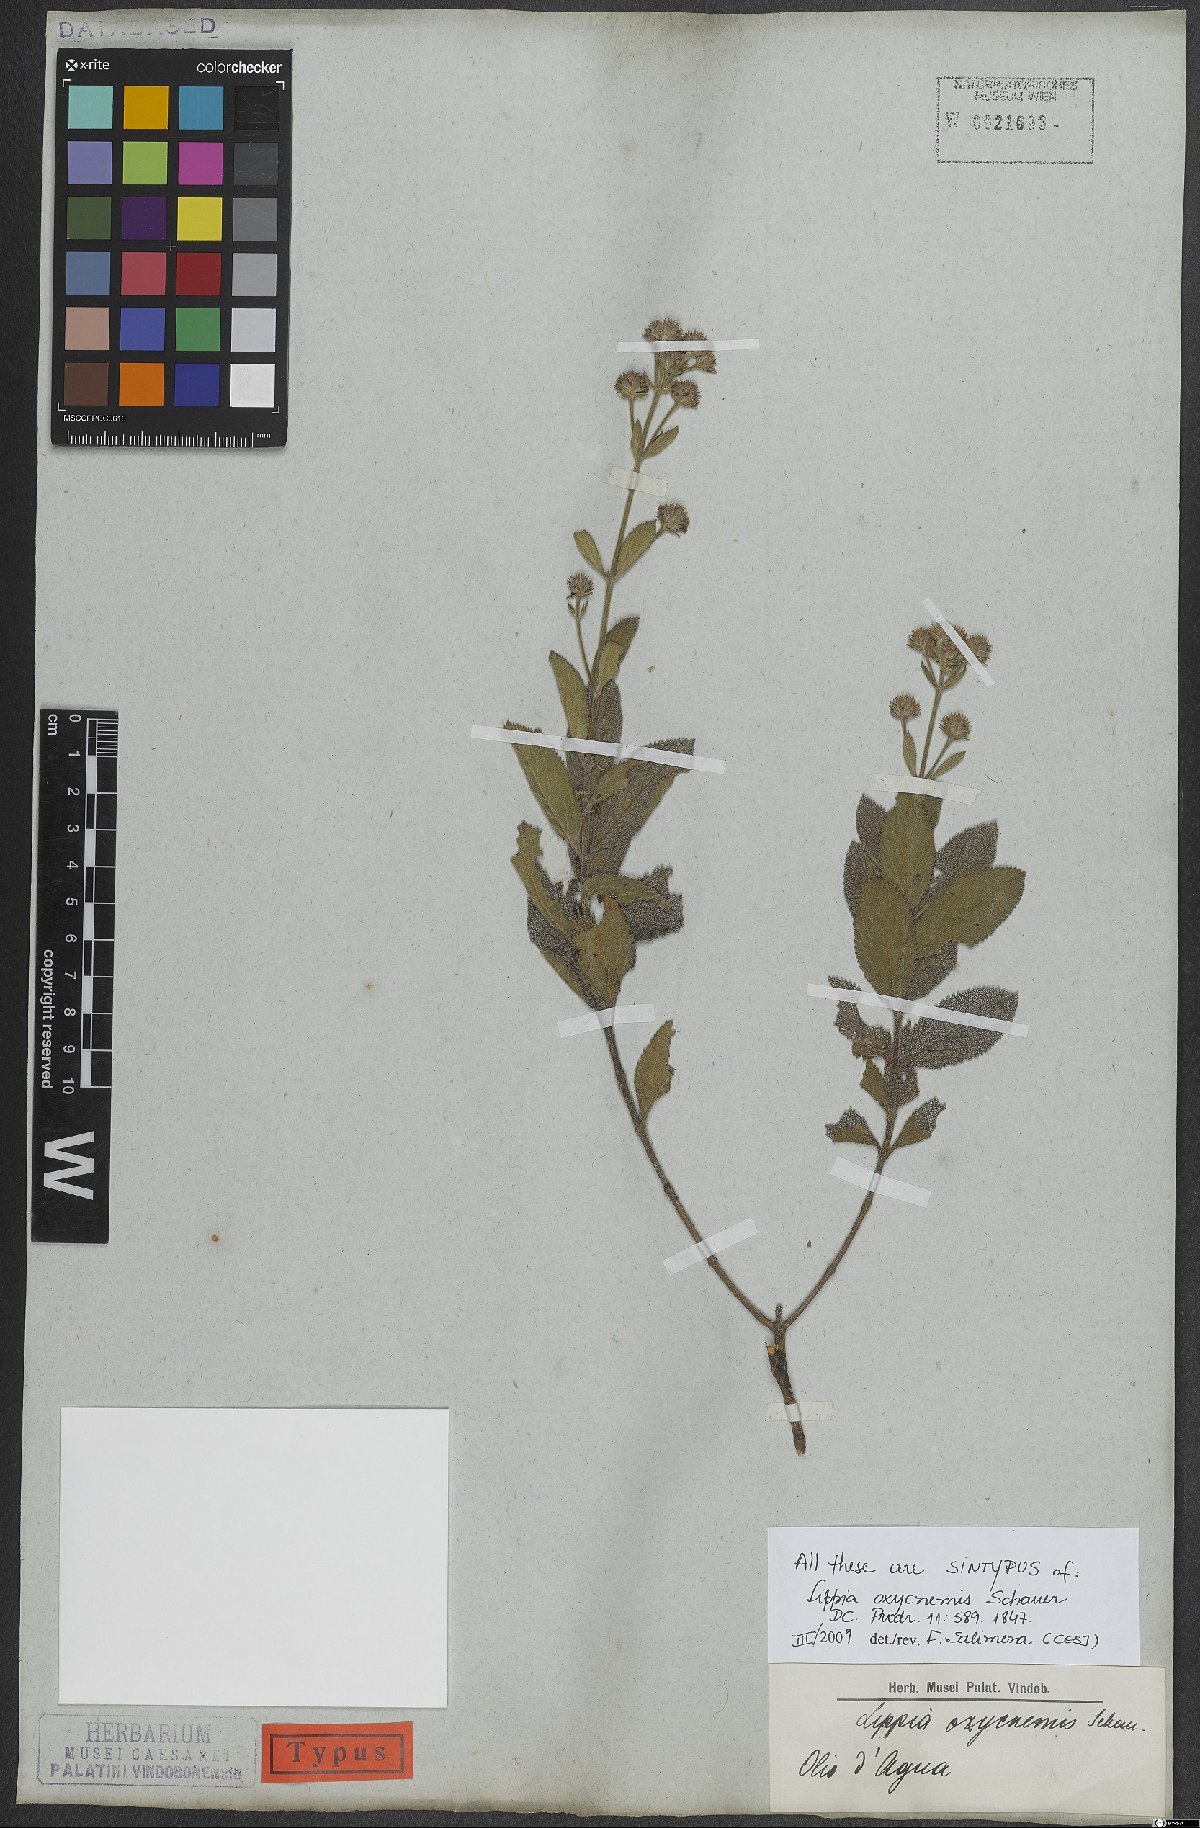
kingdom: Plantae
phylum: Tracheophyta
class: Magnoliopsida
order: Lamiales
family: Verbenaceae
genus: Lippia
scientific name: Lippia oxycnemis
